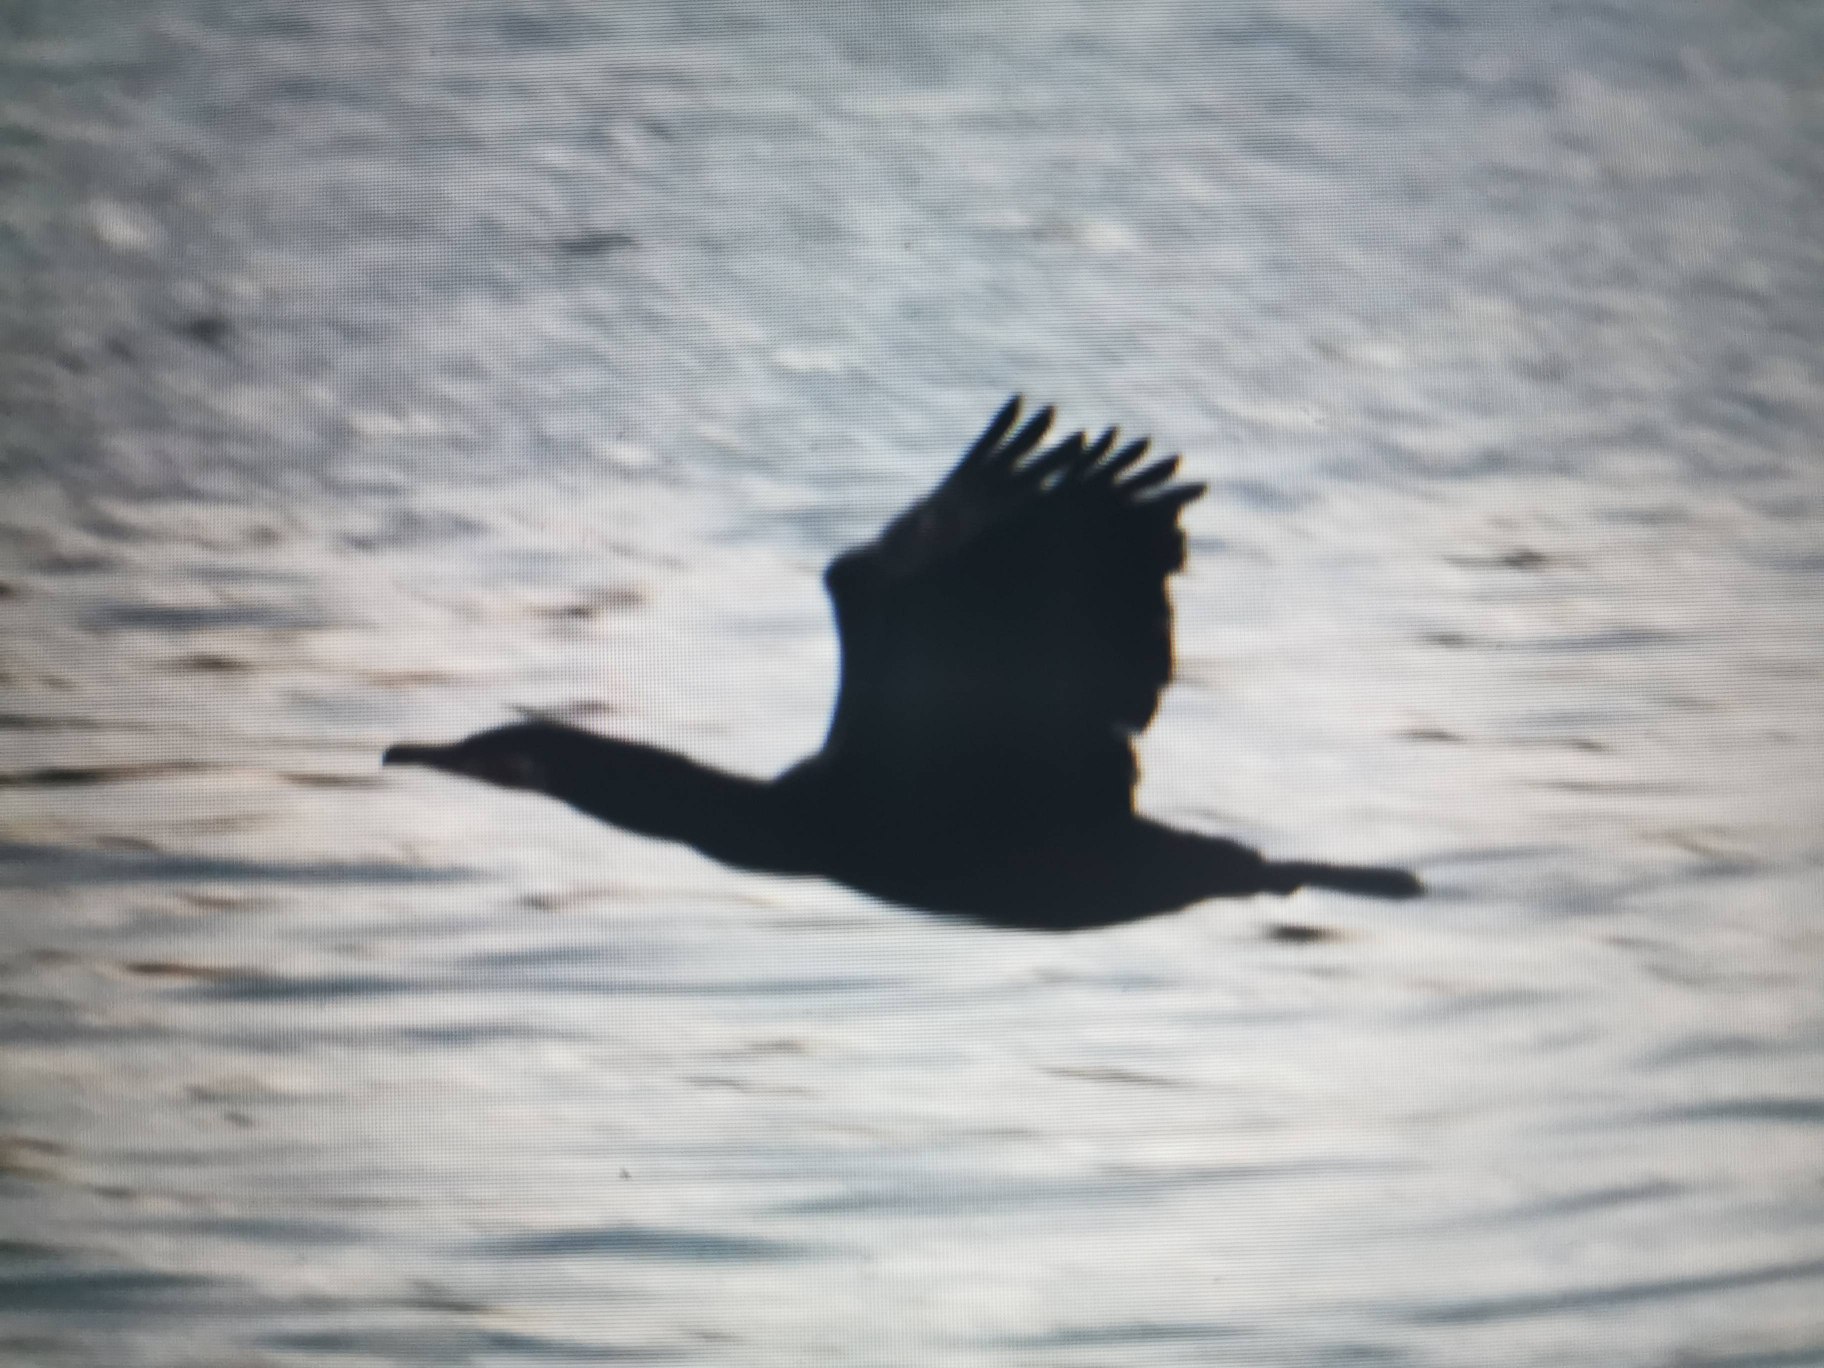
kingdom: Animalia
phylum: Chordata
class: Aves
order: Suliformes
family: Phalacrocoracidae
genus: Phalacrocorax
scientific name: Phalacrocorax carbo
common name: Skarv
